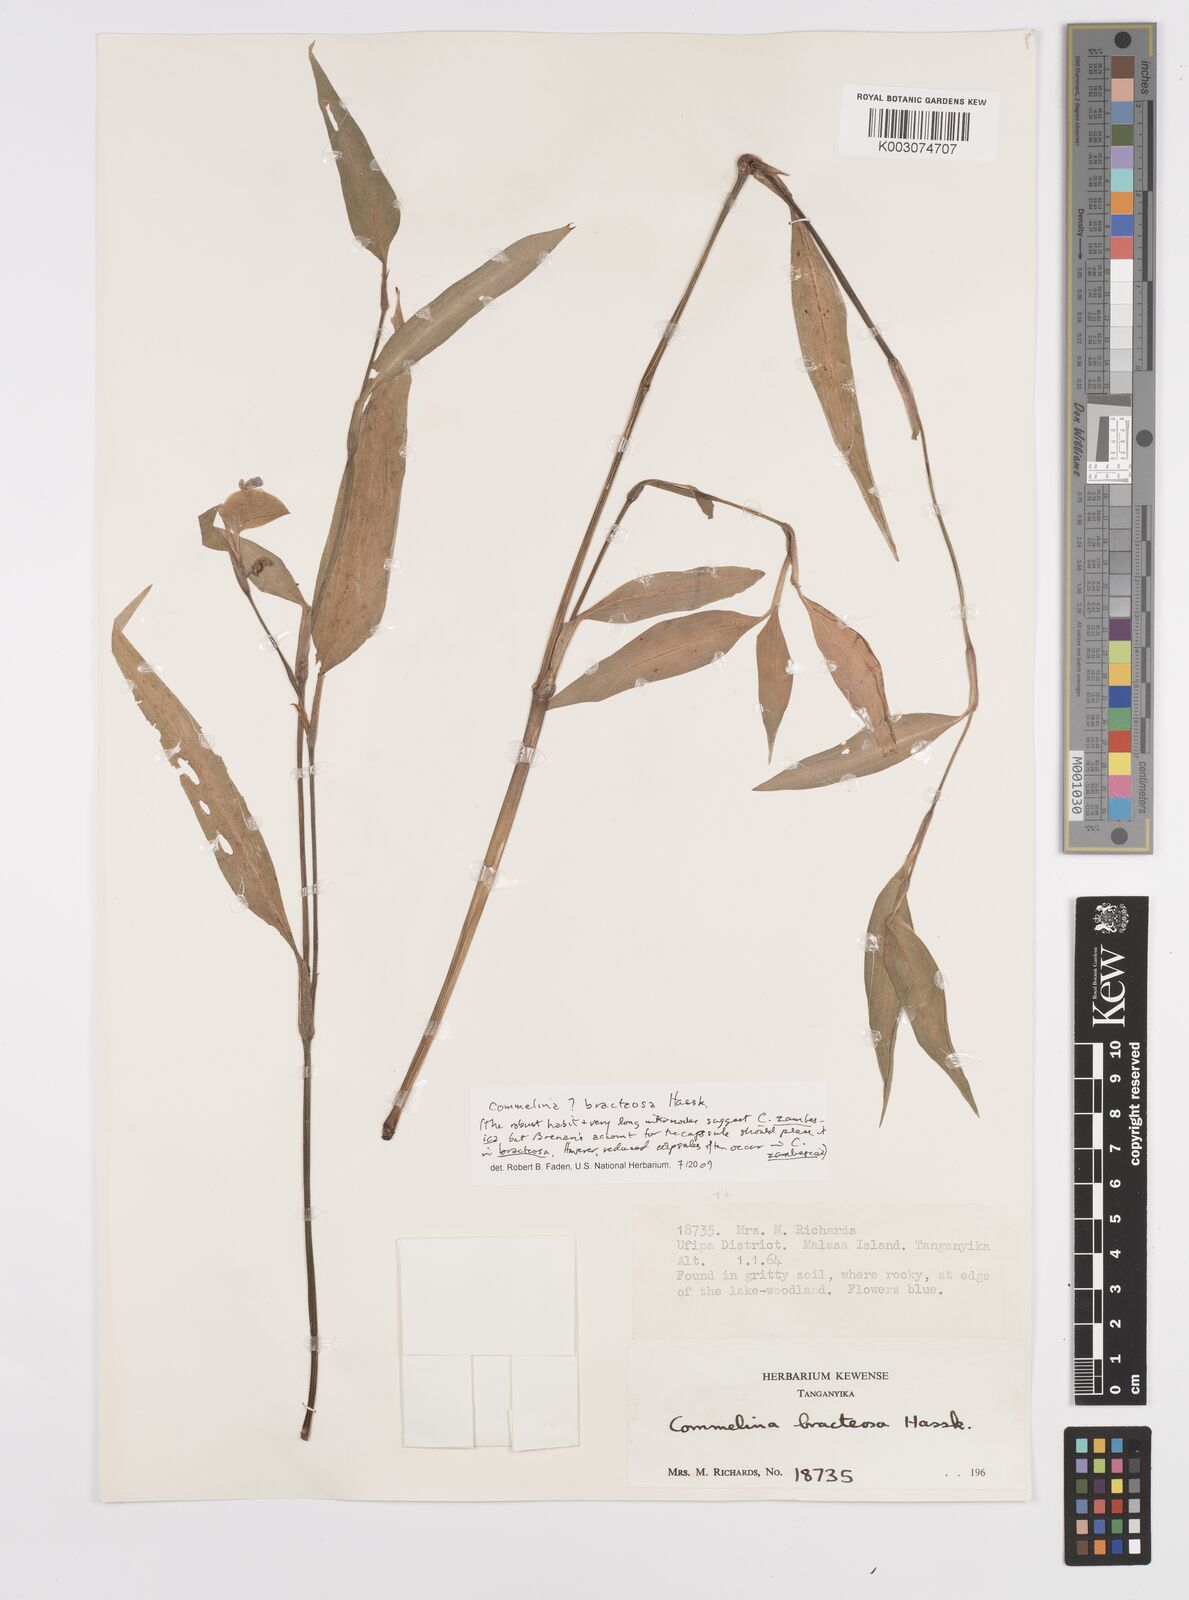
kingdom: Plantae
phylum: Tracheophyta
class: Liliopsida
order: Commelinales
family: Commelinaceae
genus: Commelina
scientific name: Commelina bracteosa
